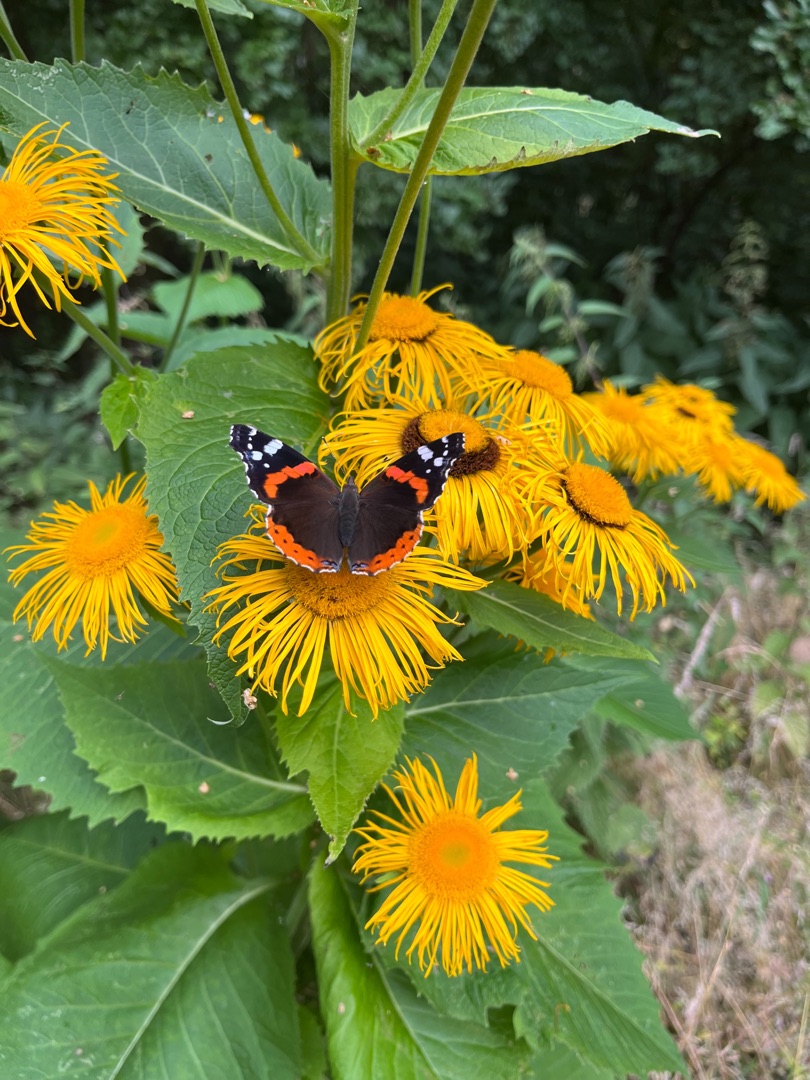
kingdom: Animalia
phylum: Arthropoda
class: Insecta
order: Lepidoptera
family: Nymphalidae
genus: Vanessa
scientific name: Vanessa atalanta
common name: Admiral
